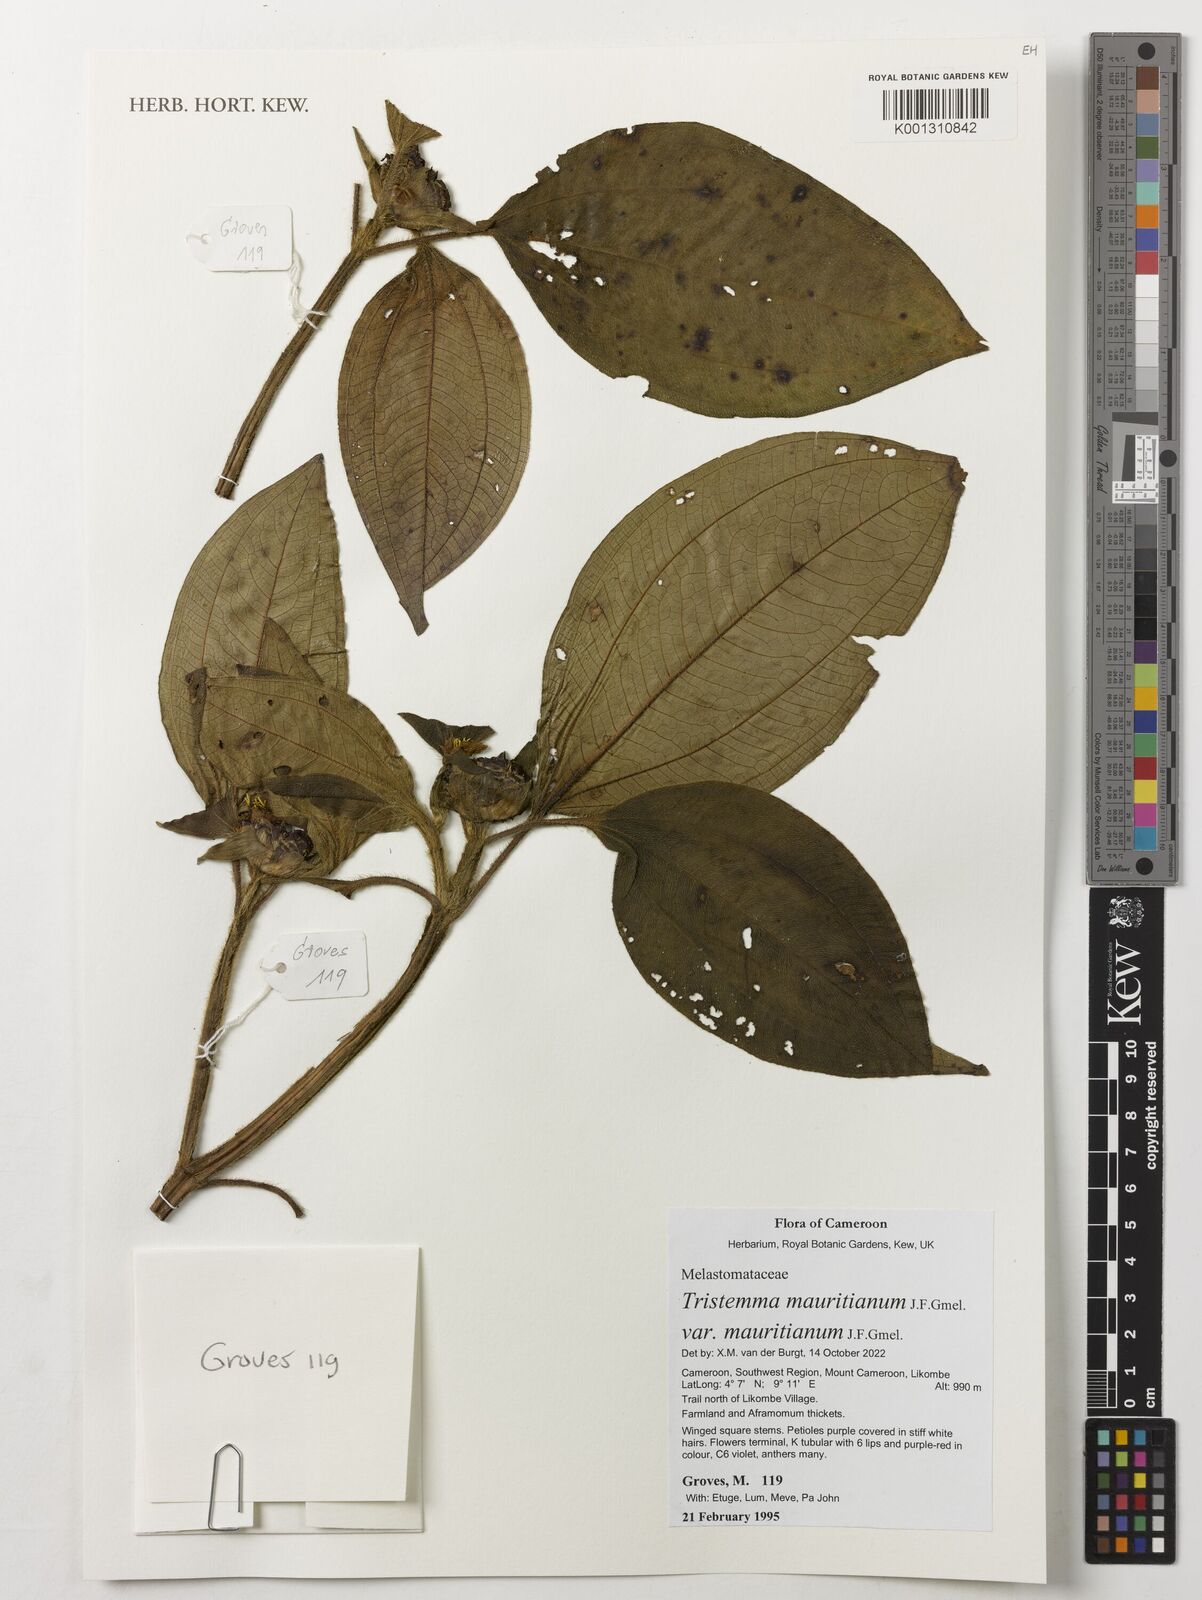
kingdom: Plantae
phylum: Tracheophyta
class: Magnoliopsida
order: Myrtales
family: Melastomataceae
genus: Tristemma
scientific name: Tristemma mauritianum
